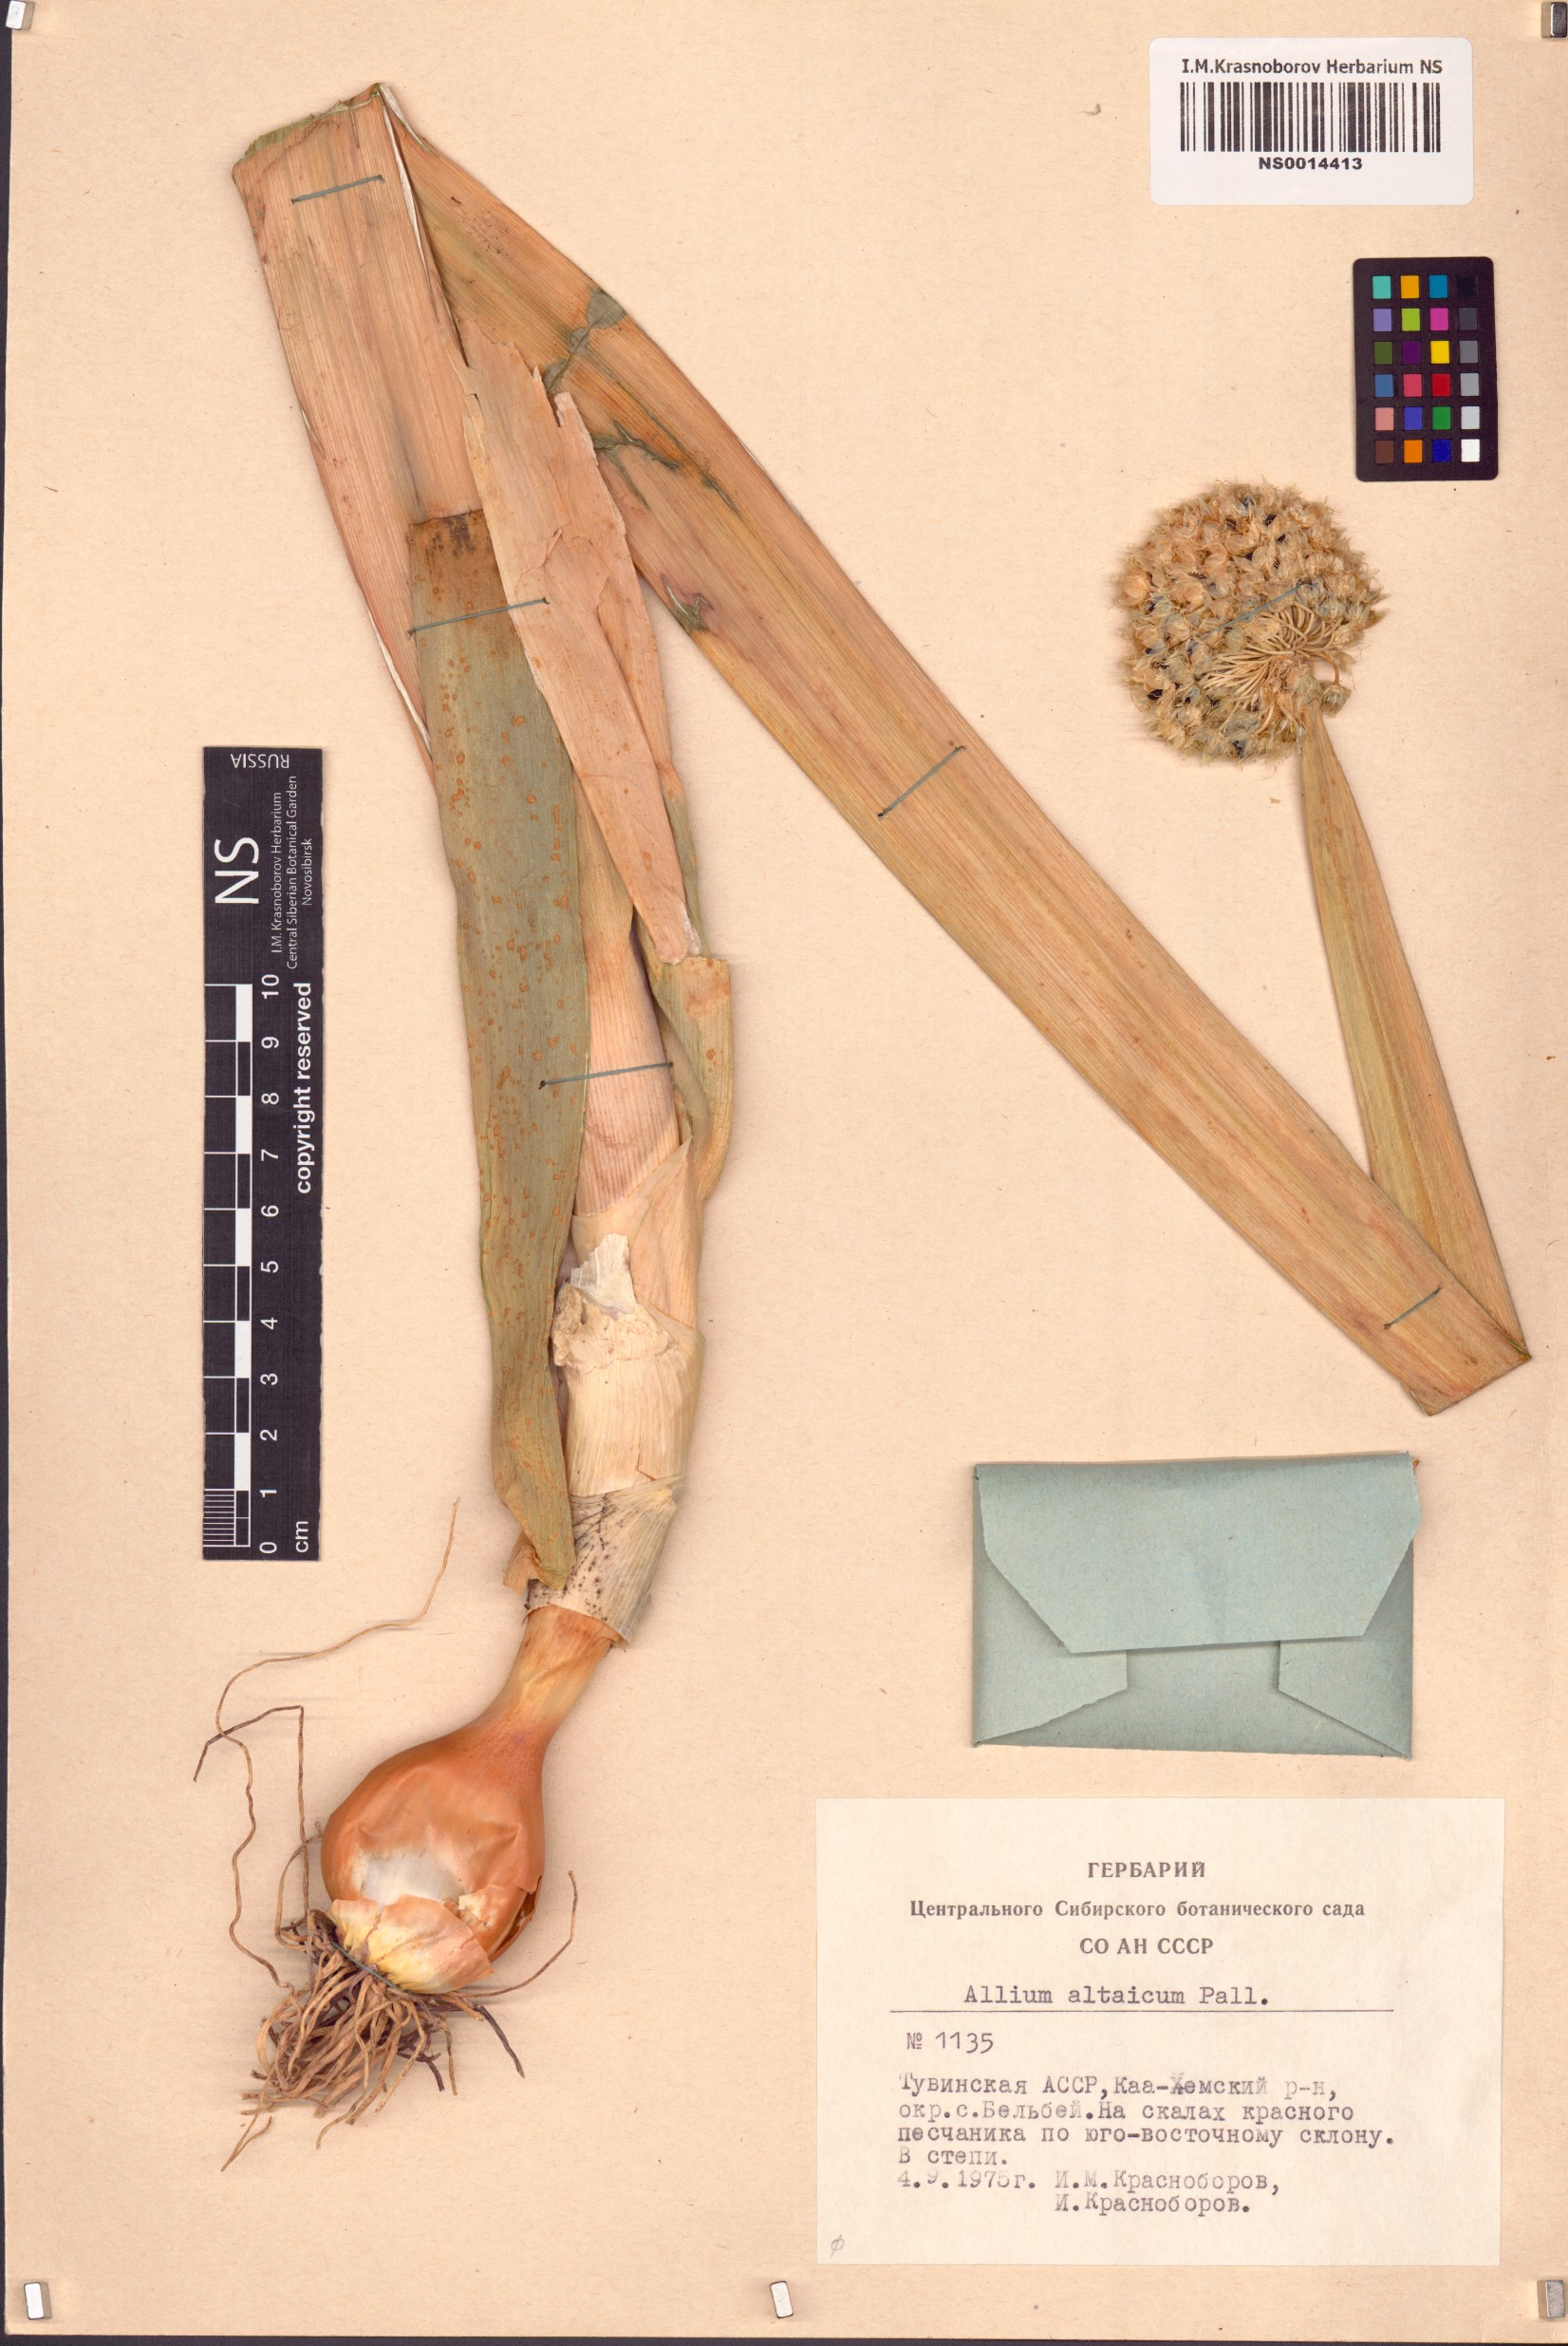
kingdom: Plantae
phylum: Tracheophyta
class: Liliopsida
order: Asparagales
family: Amaryllidaceae
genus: Allium
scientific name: Allium altaicum
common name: Altai onion
